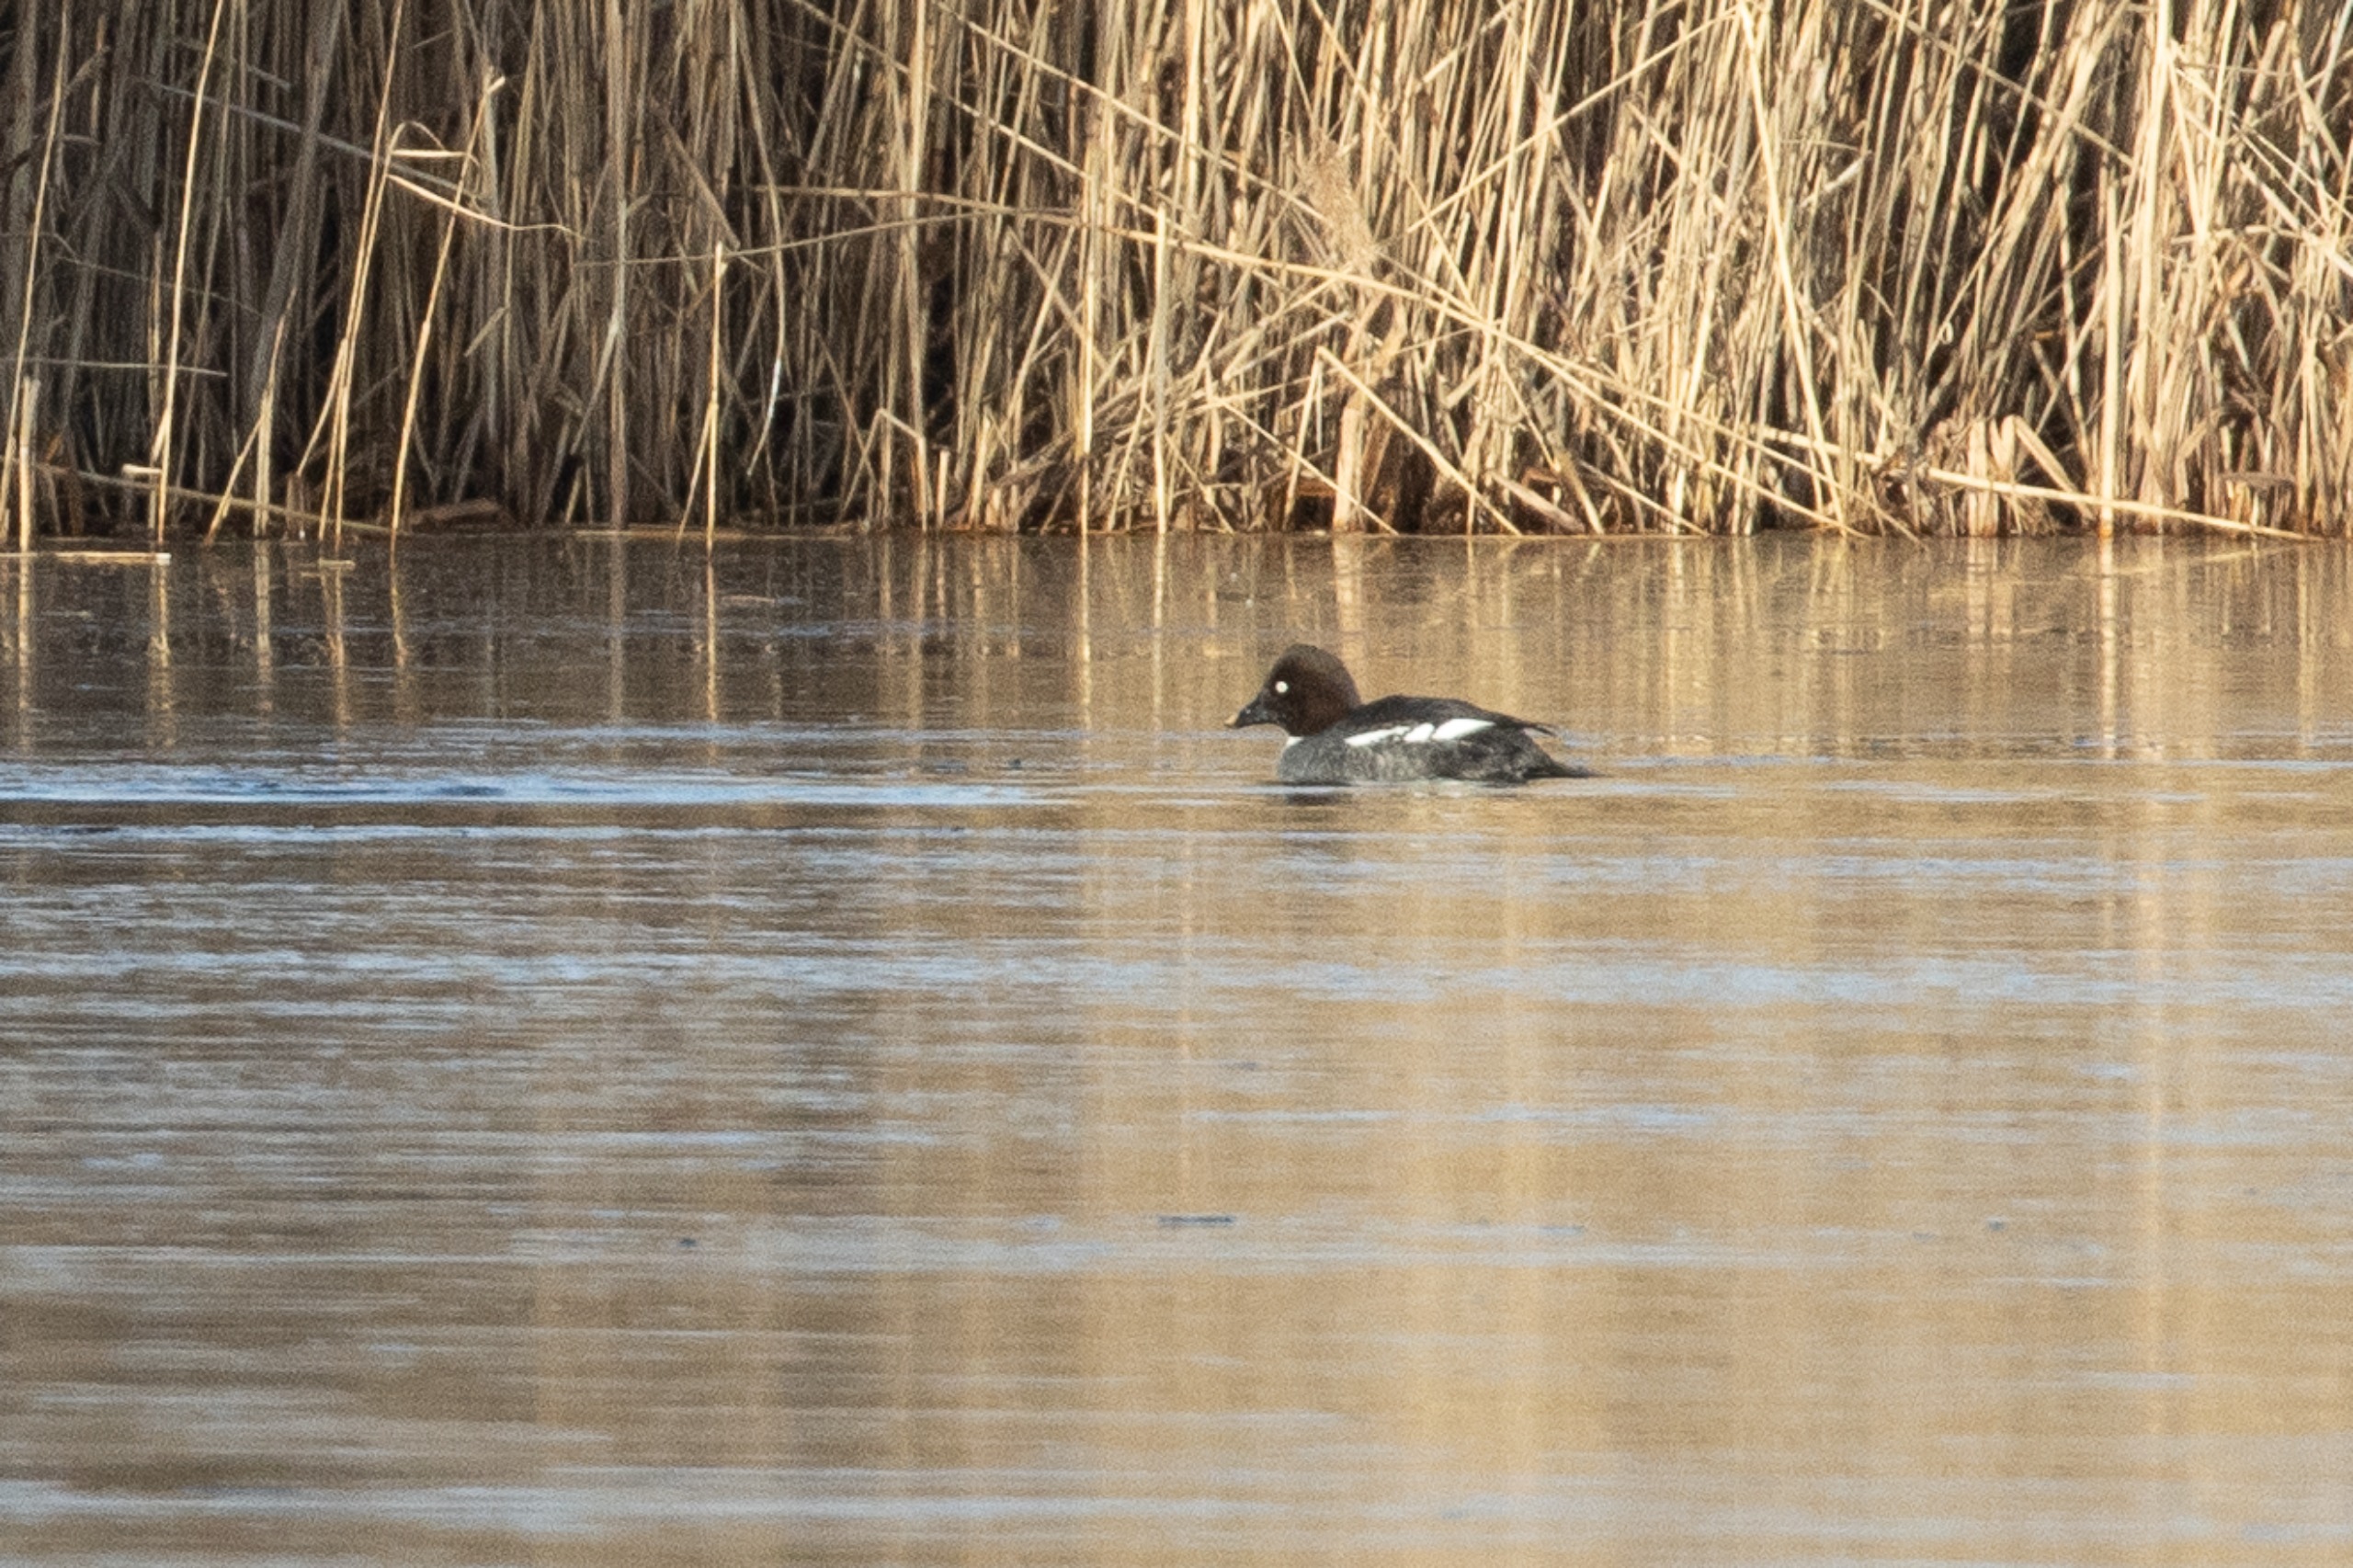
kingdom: Animalia
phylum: Chordata
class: Aves
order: Anseriformes
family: Anatidae
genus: Bucephala
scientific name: Bucephala clangula
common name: Hvinand
